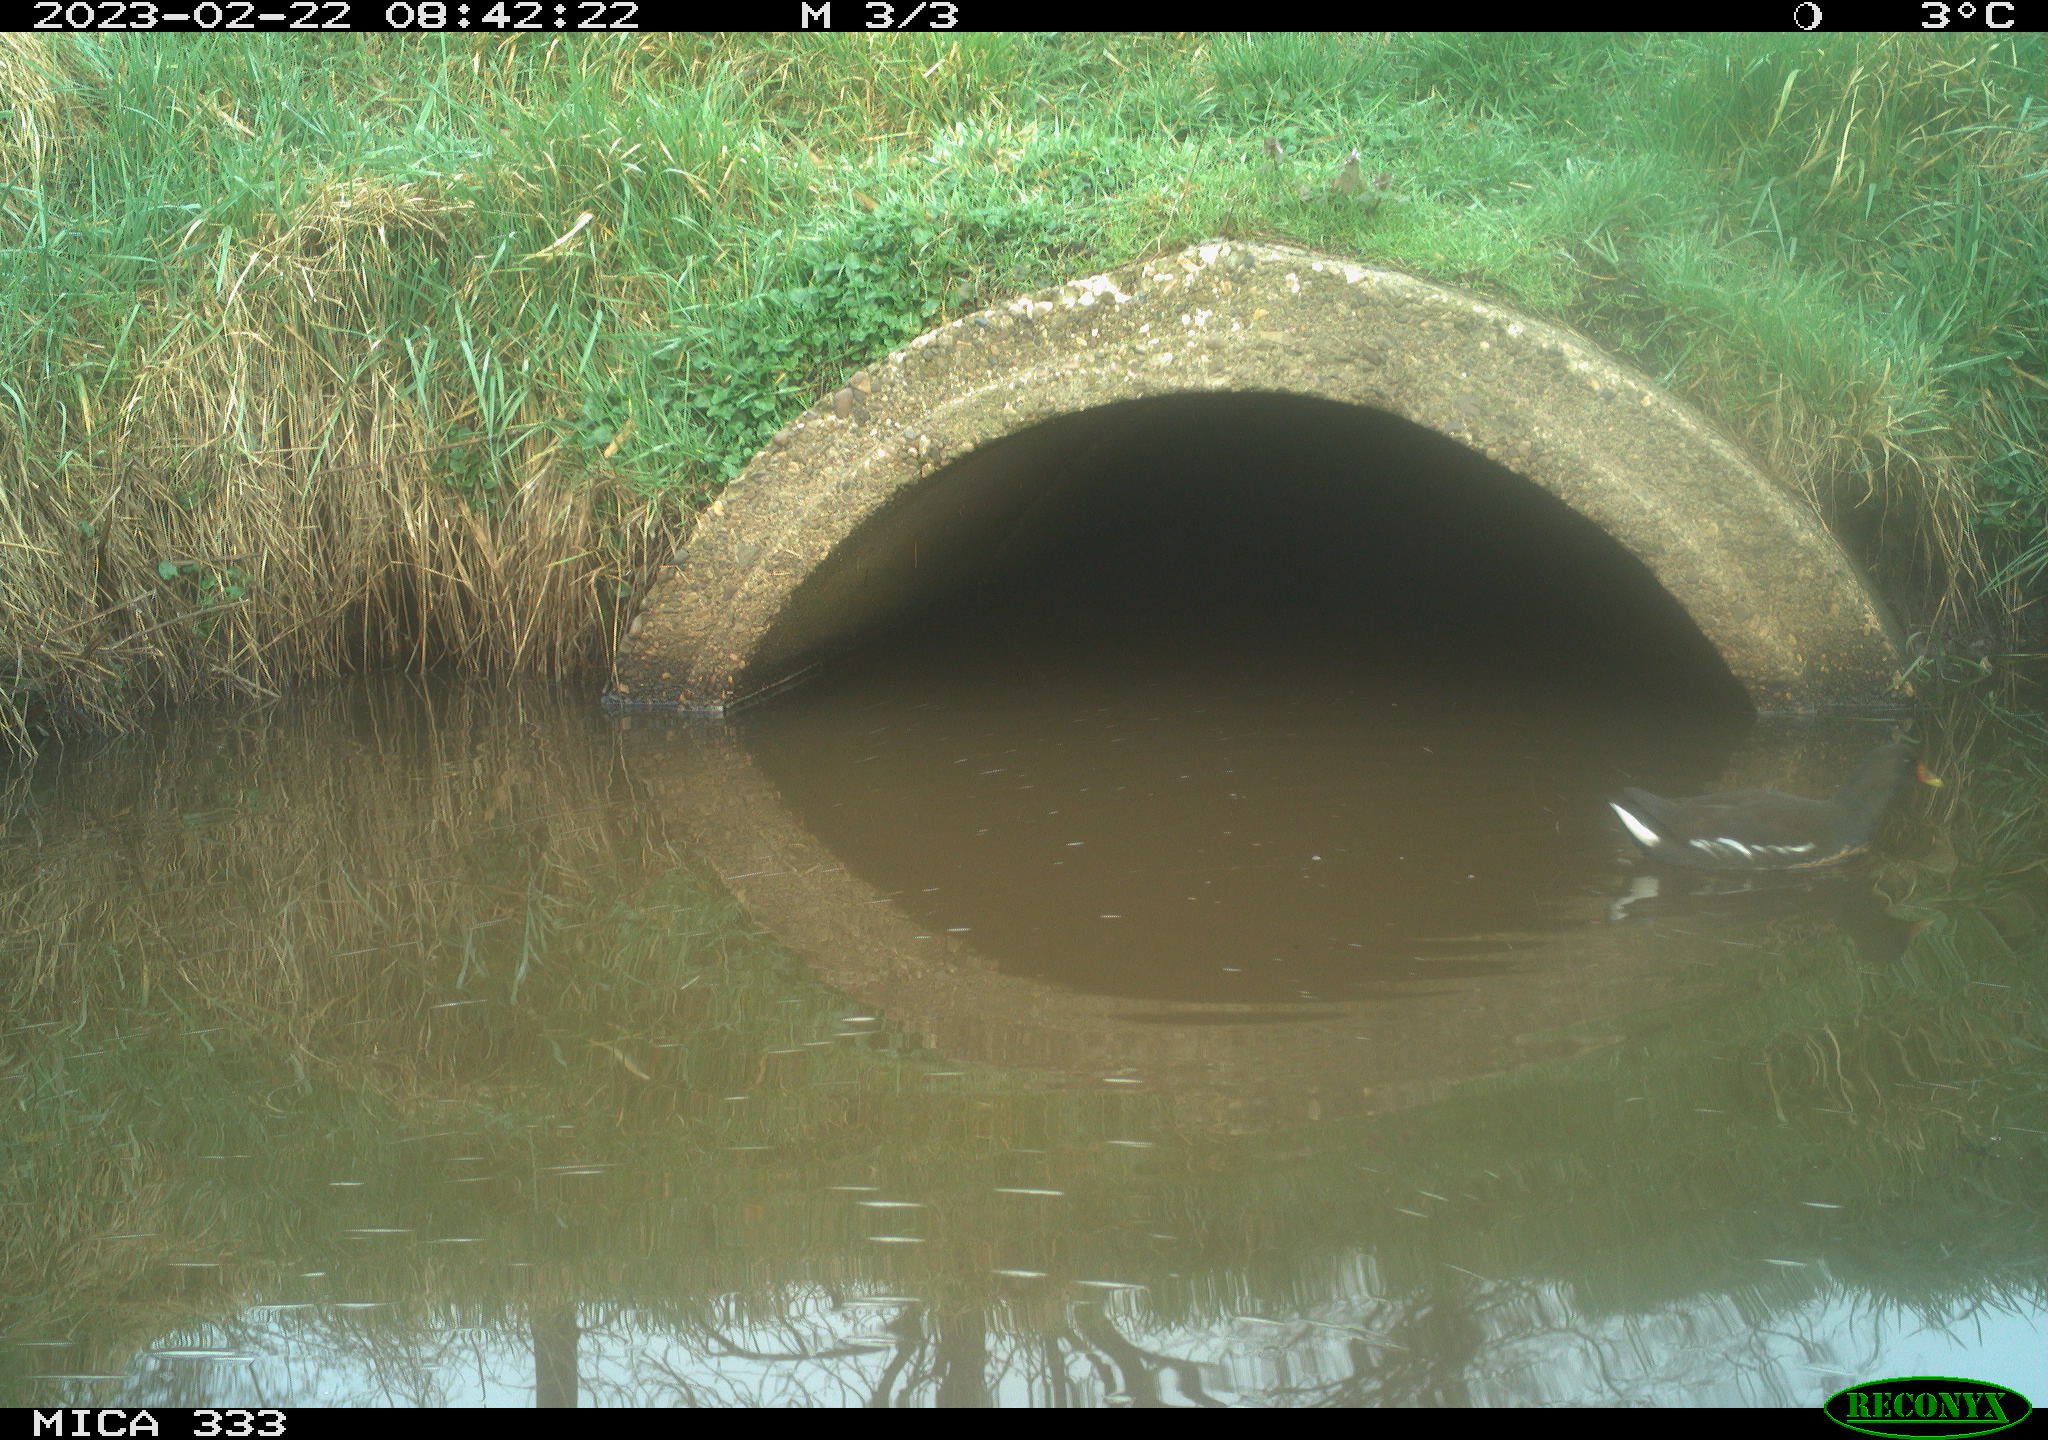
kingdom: Animalia
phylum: Chordata
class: Aves
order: Gruiformes
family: Rallidae
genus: Gallinula
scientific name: Gallinula chloropus
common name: Common moorhen
